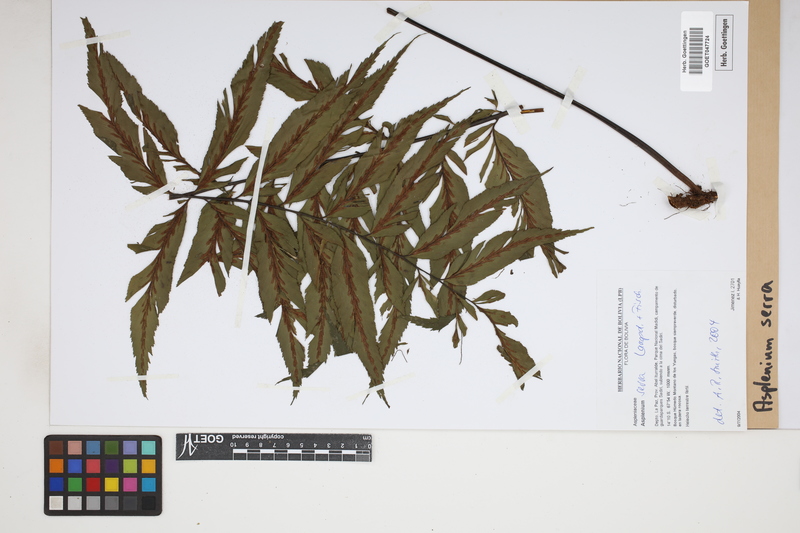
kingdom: Plantae
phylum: Tracheophyta
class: Polypodiopsida
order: Polypodiales
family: Aspleniaceae
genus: Asplenium
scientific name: Asplenium serra
